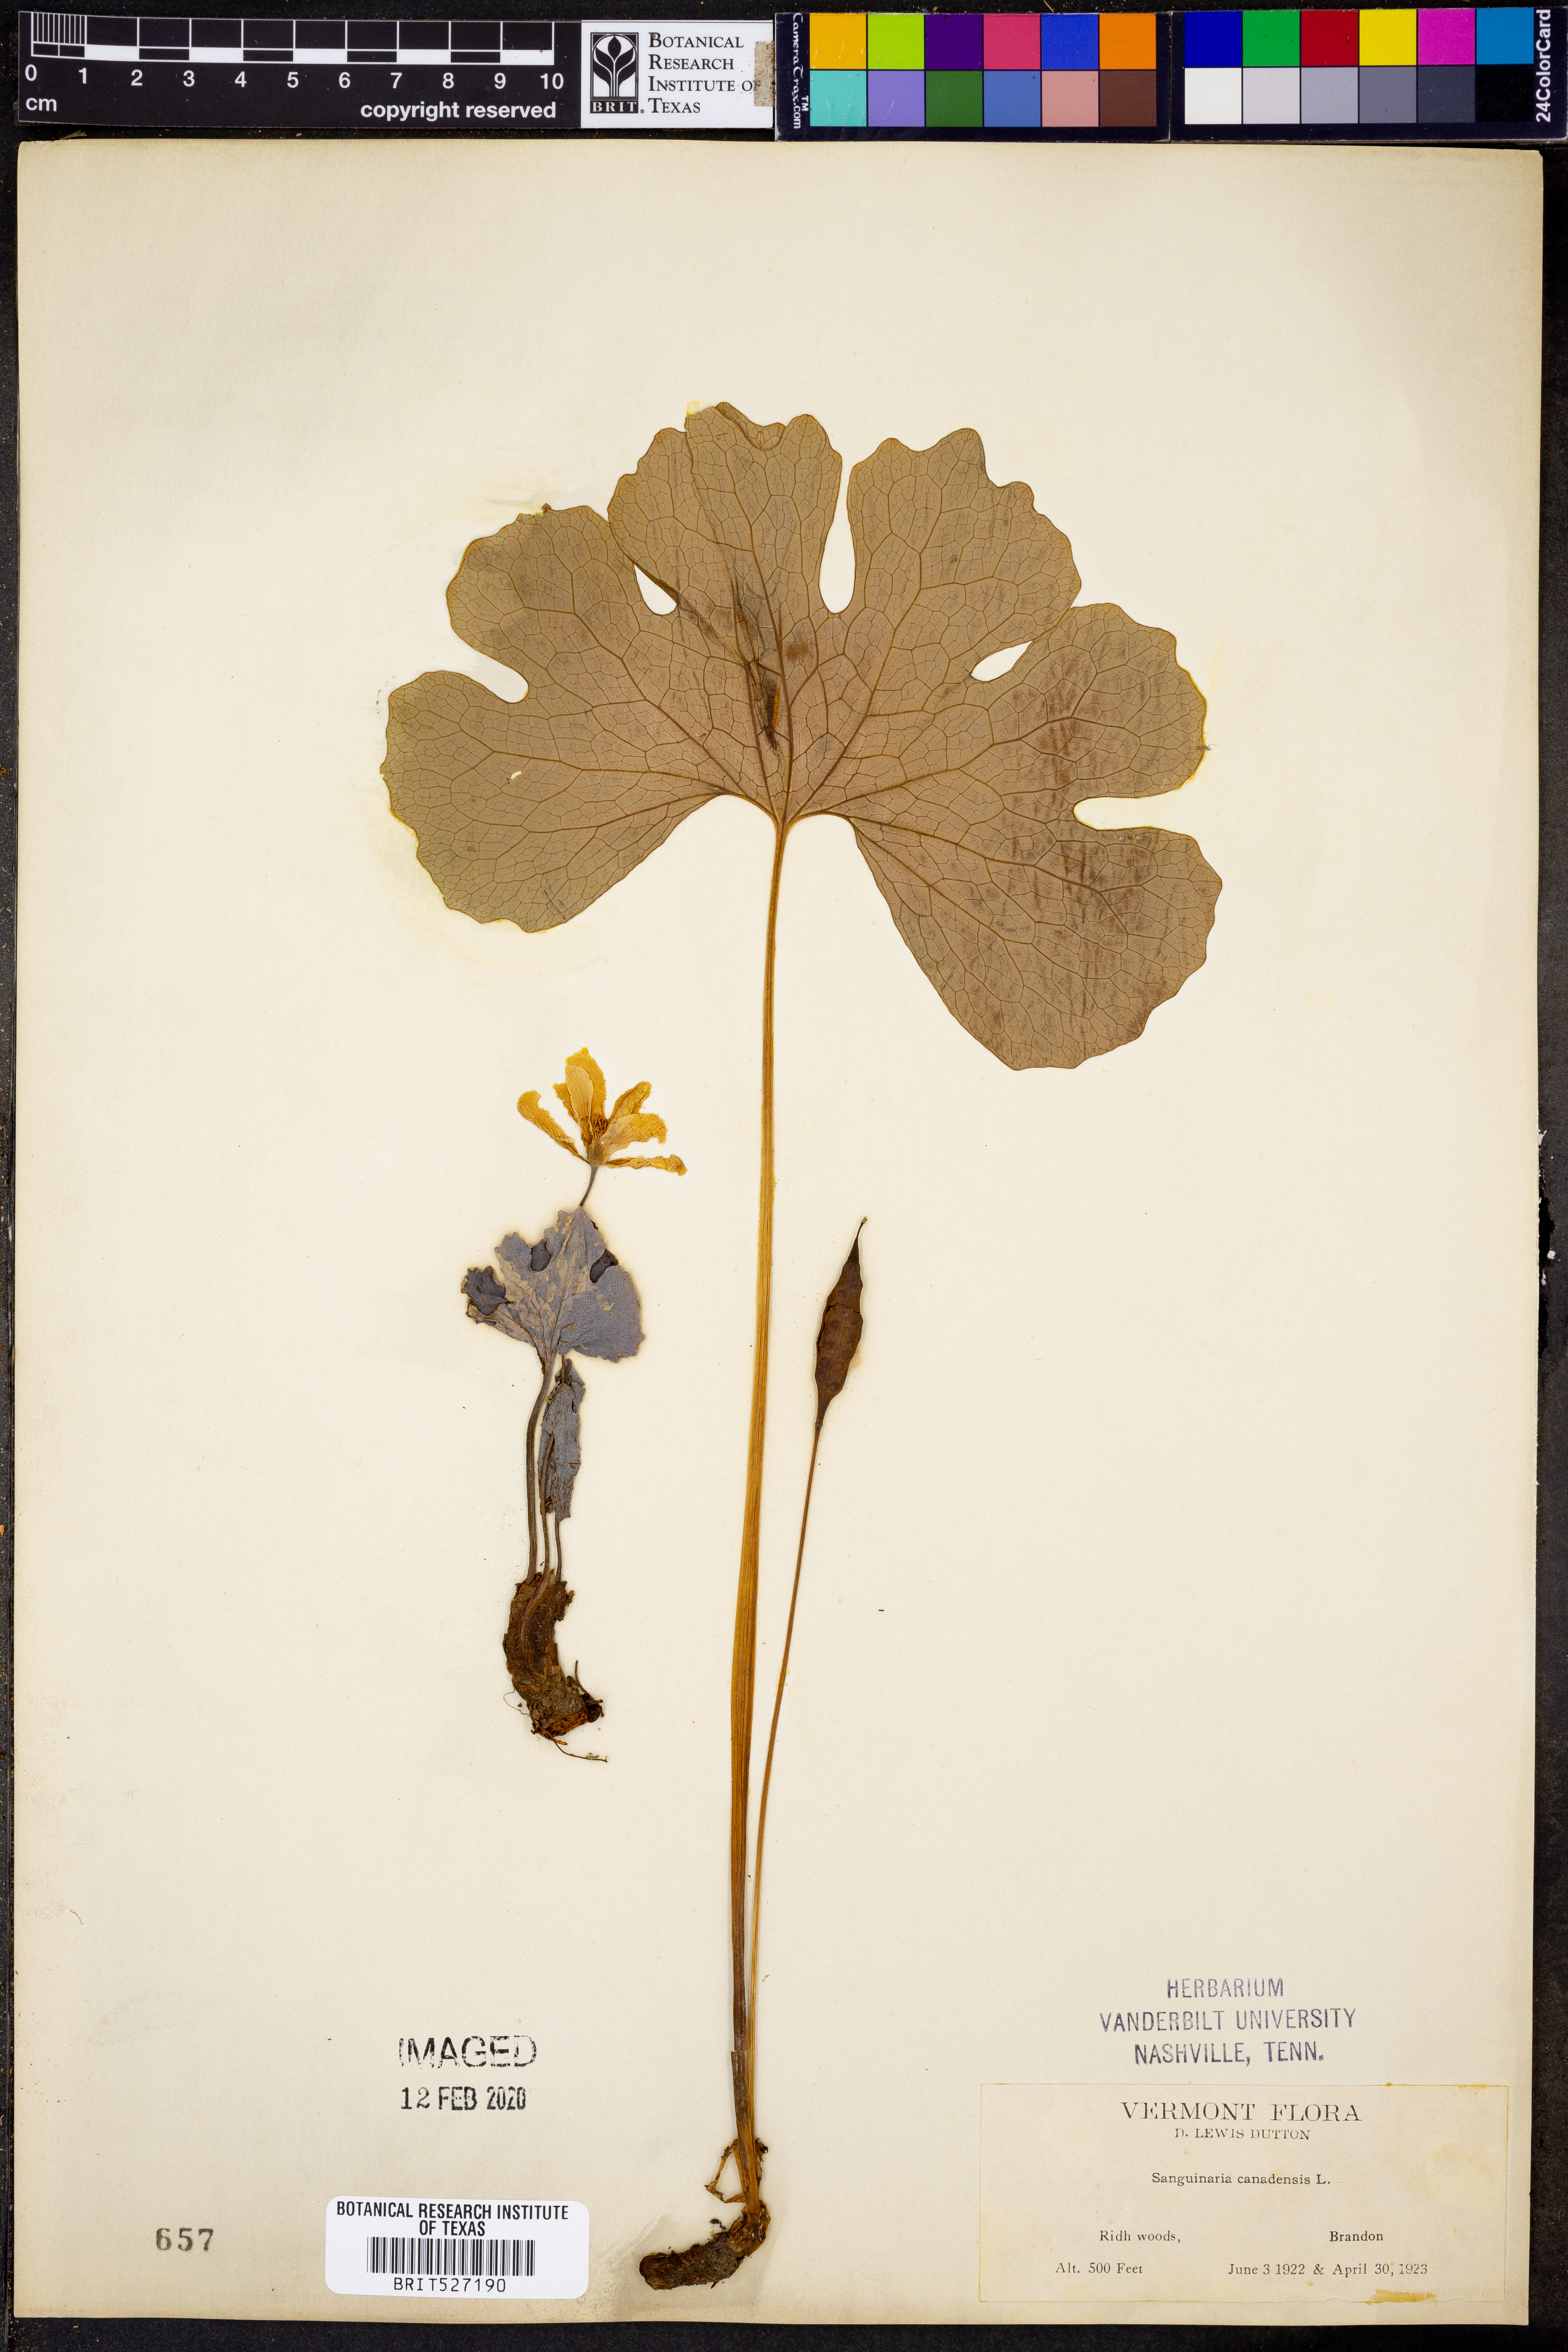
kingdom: Plantae
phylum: Tracheophyta
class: Magnoliopsida
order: Ranunculales
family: Papaveraceae
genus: Sanguinaria
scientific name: Sanguinaria canadensis
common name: Bloodroot
